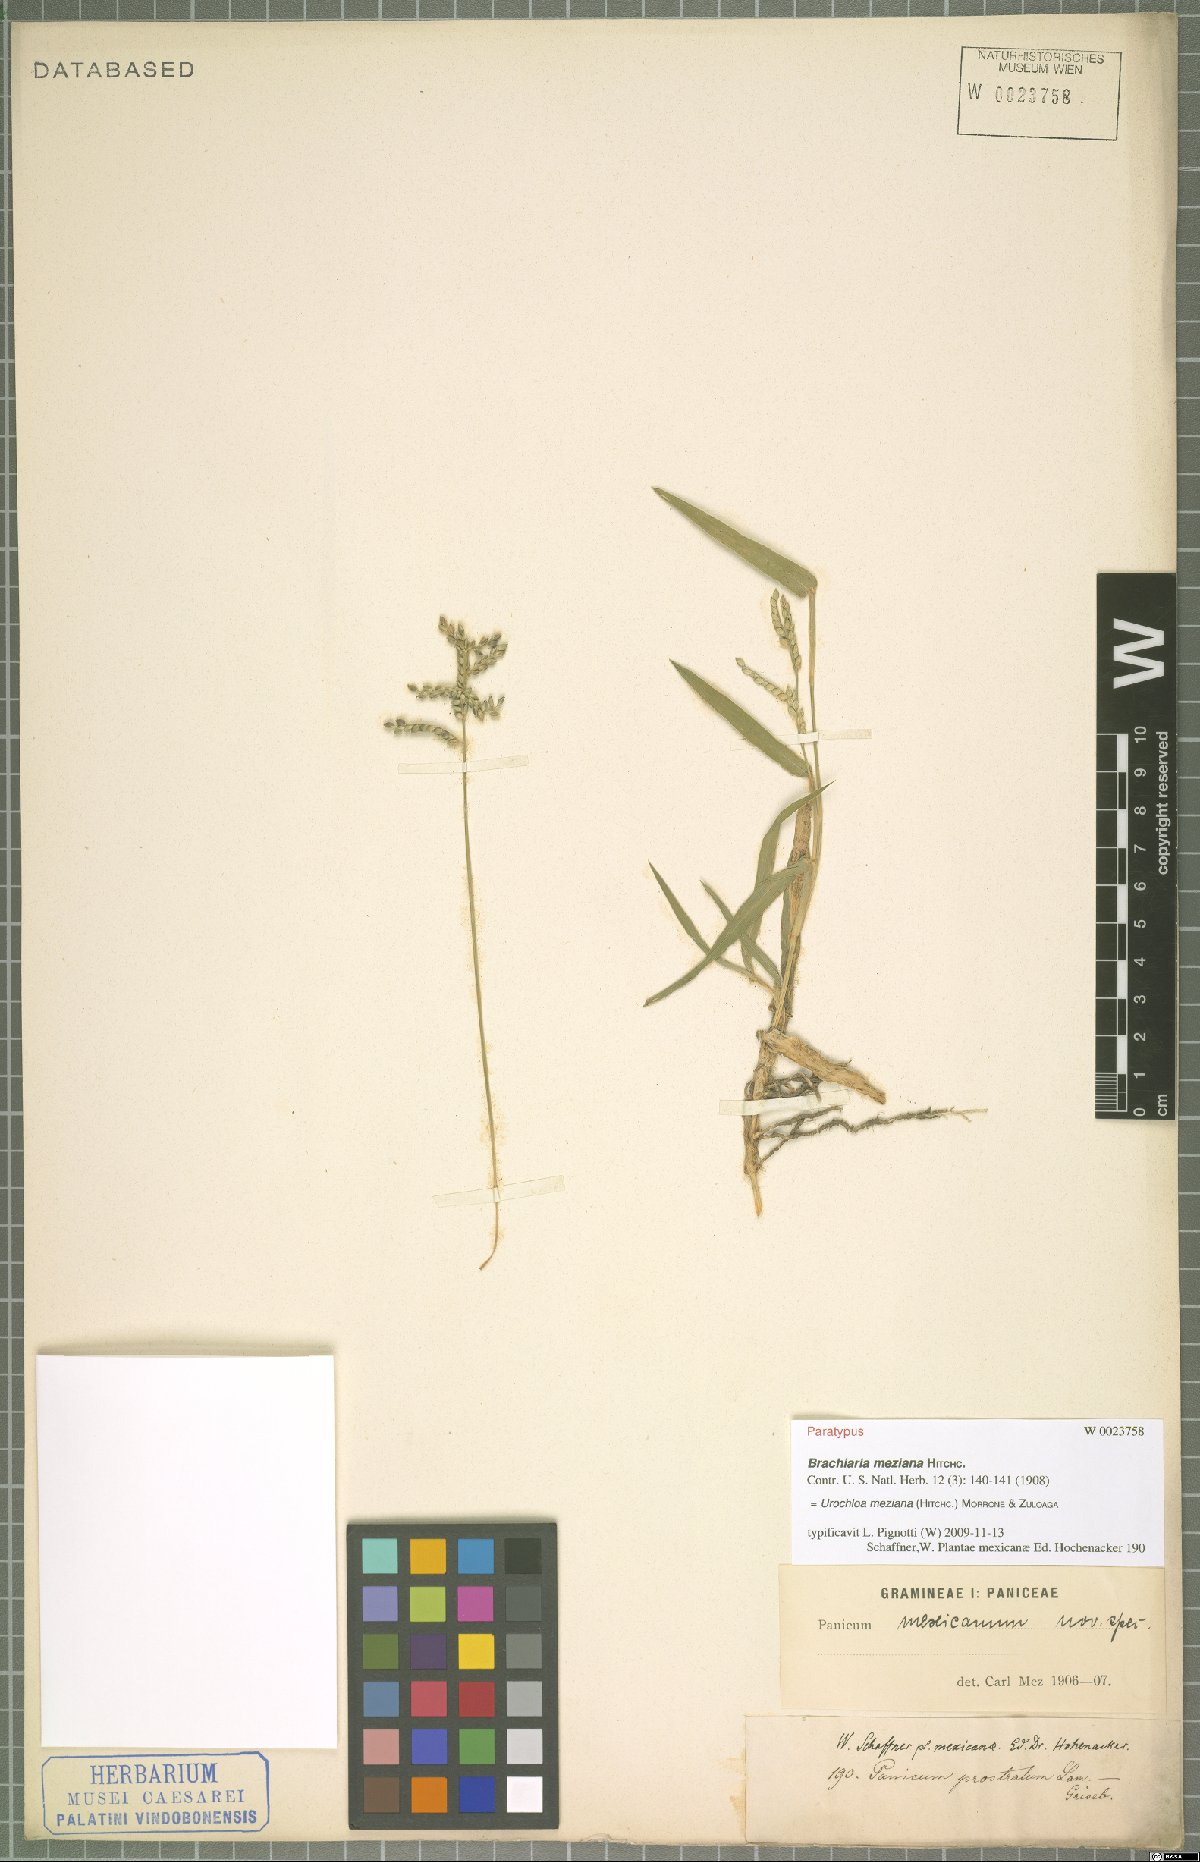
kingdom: Plantae
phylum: Tracheophyta
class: Liliopsida
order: Poales
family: Poaceae
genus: Urochloa
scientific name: Urochloa meziana
